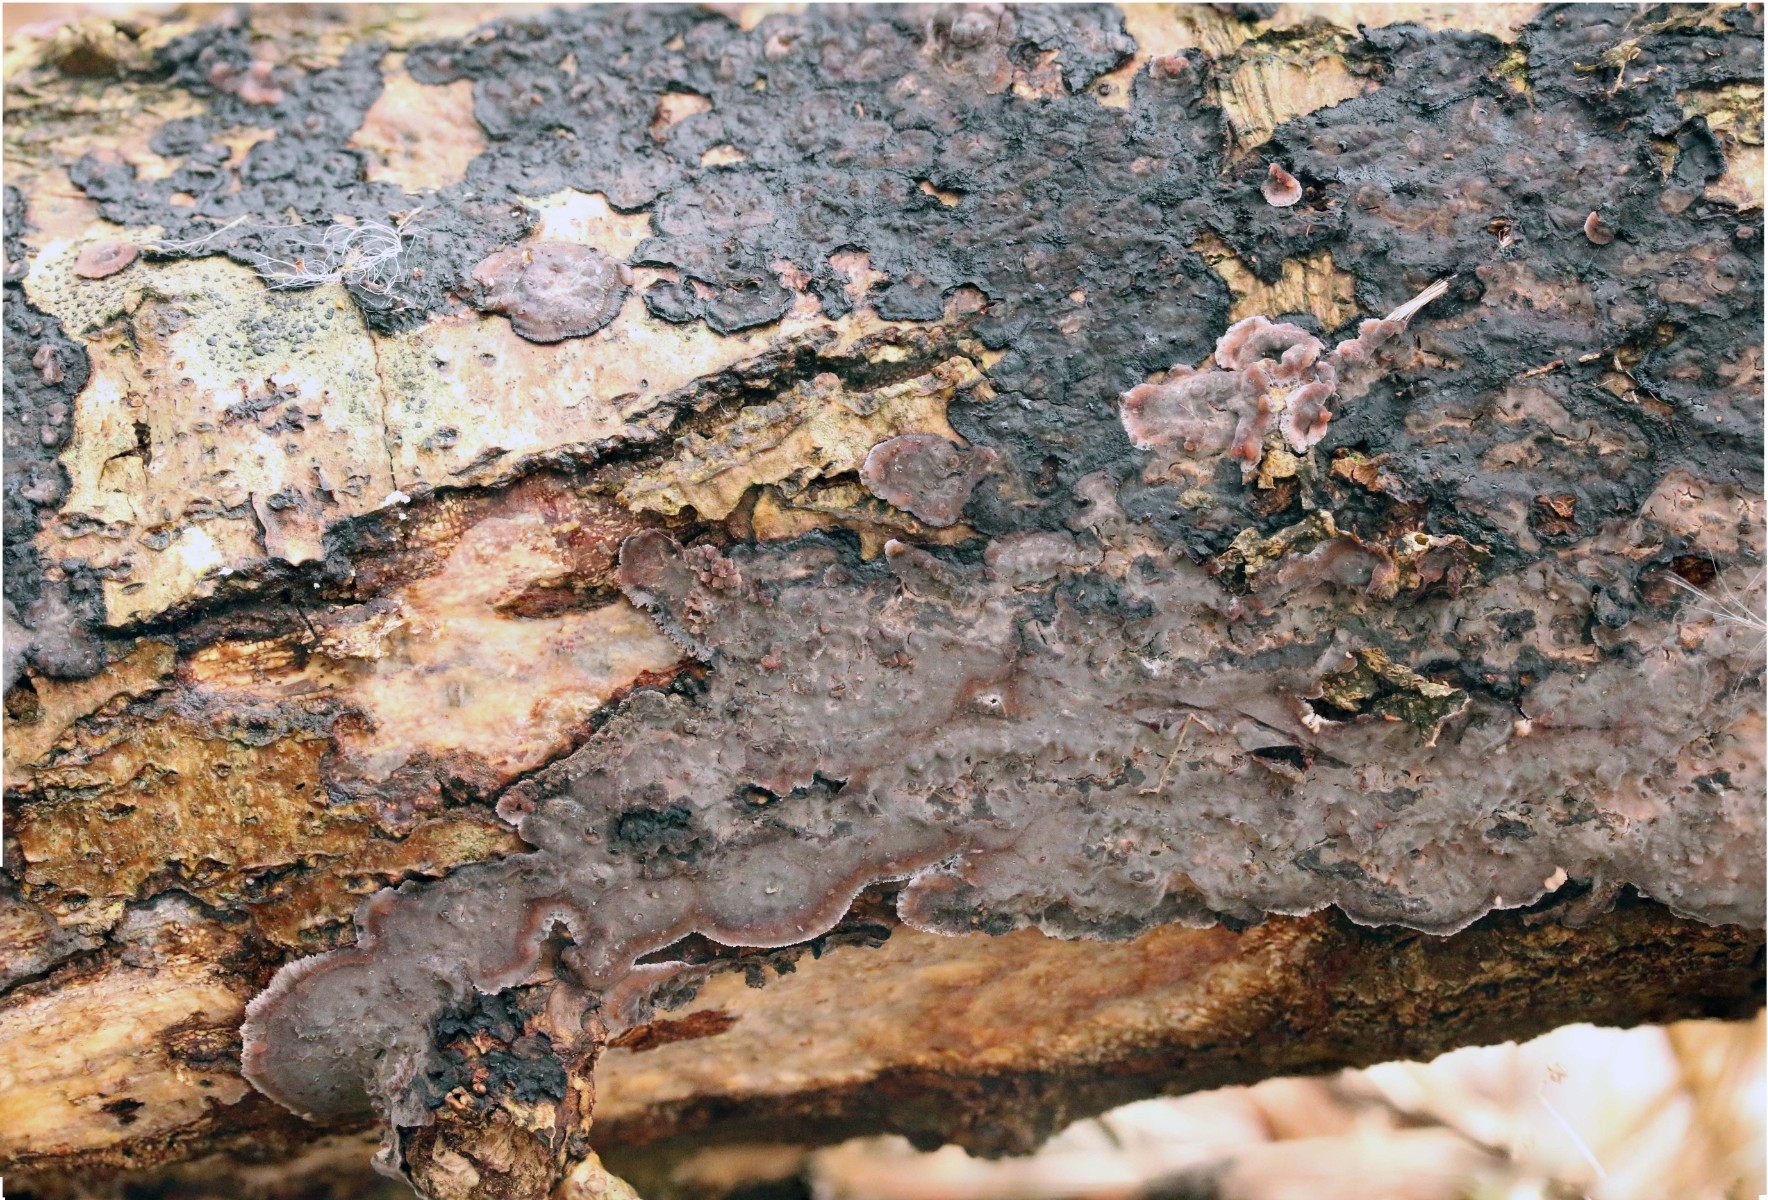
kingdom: Fungi
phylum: Basidiomycota
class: Agaricomycetes
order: Russulales
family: Peniophoraceae
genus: Peniophora
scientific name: Peniophora
